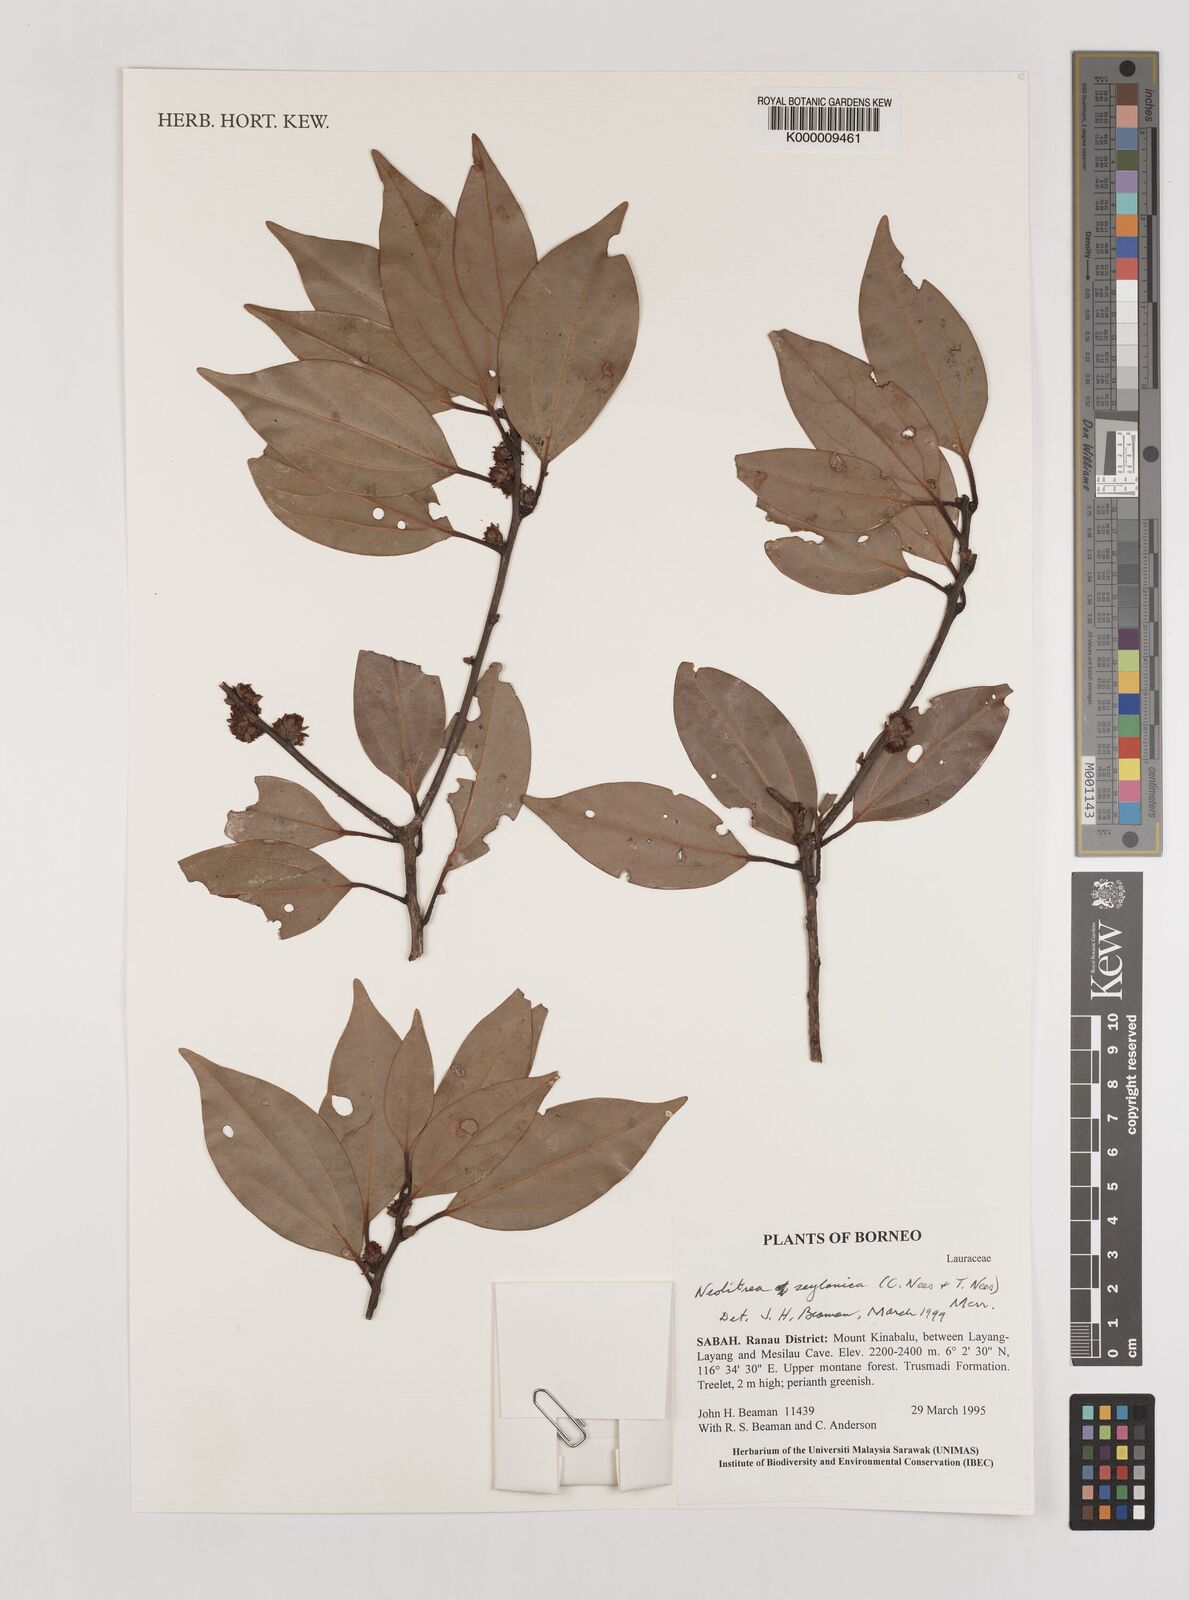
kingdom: Plantae
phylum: Tracheophyta
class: Magnoliopsida
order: Laurales
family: Lauraceae
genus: Neolitsea
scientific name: Neolitsea foliosa
